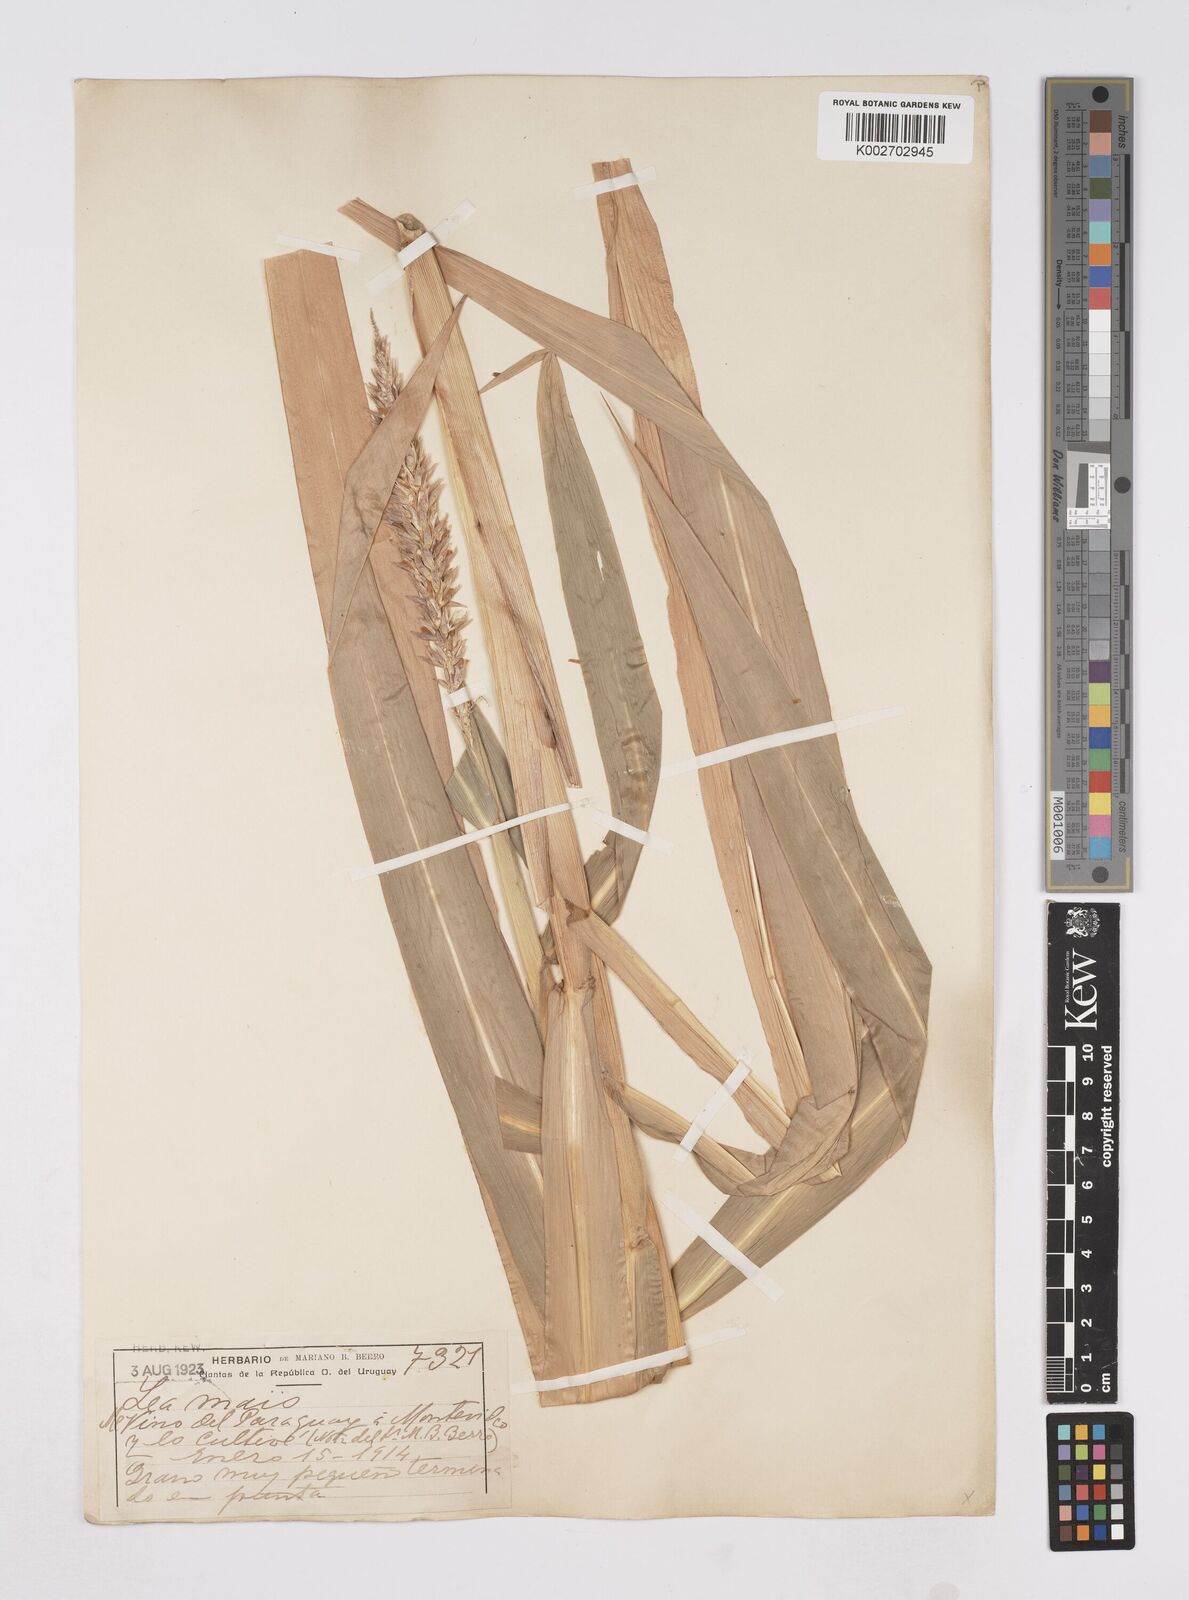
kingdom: Plantae
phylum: Tracheophyta
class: Liliopsida
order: Poales
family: Poaceae
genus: Zea
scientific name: Zea mays
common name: Maize
